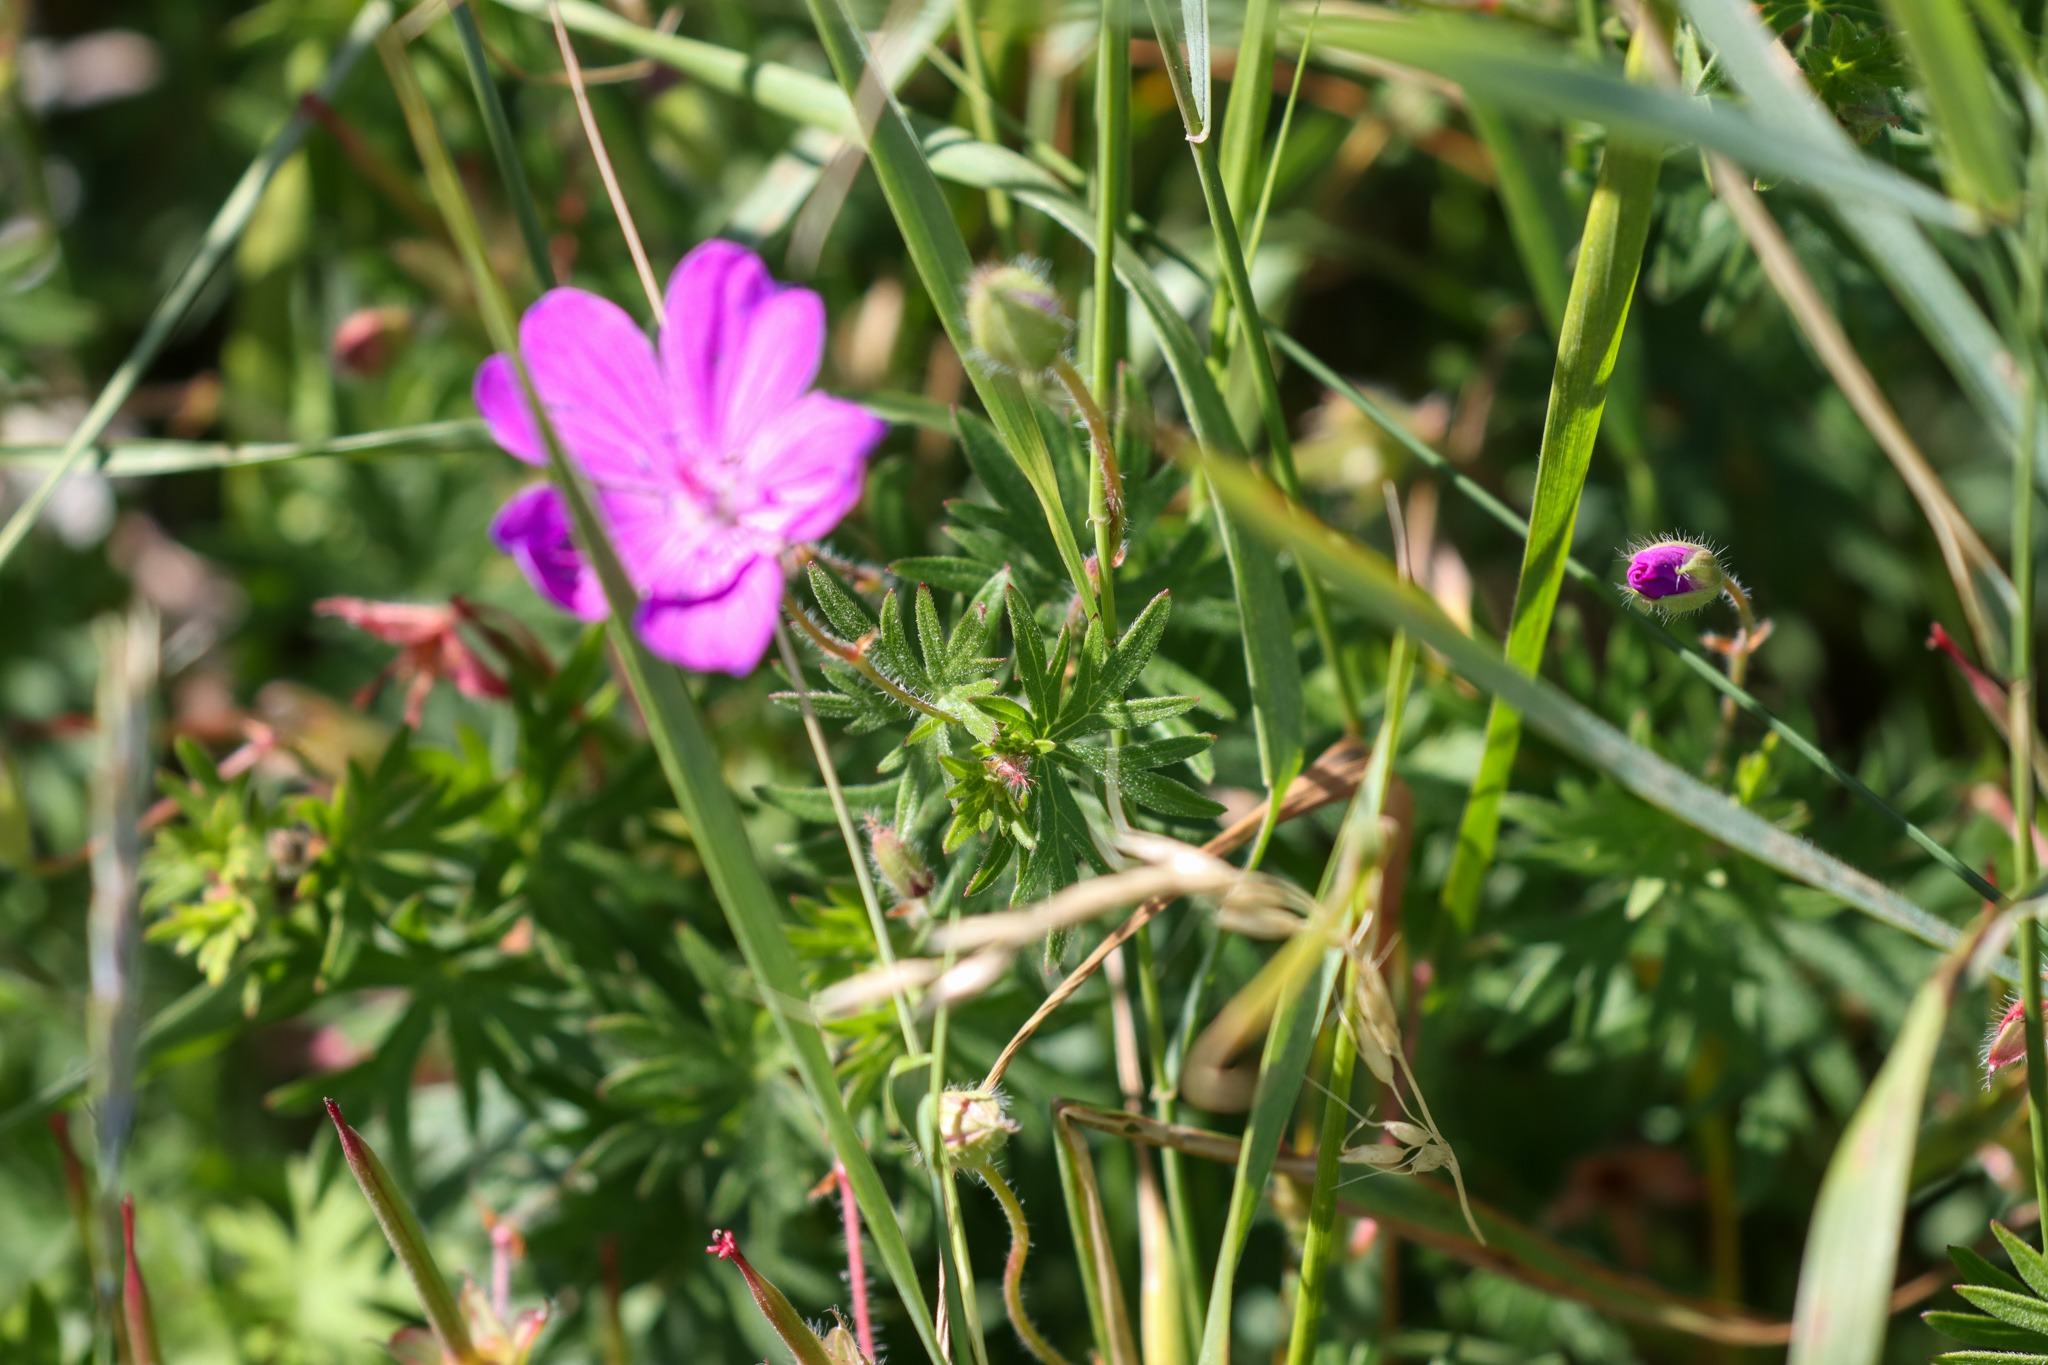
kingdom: Plantae
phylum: Tracheophyta
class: Magnoliopsida
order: Geraniales
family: Geraniaceae
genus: Geranium
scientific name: Geranium sanguineum
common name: Blodrød storkenæb
